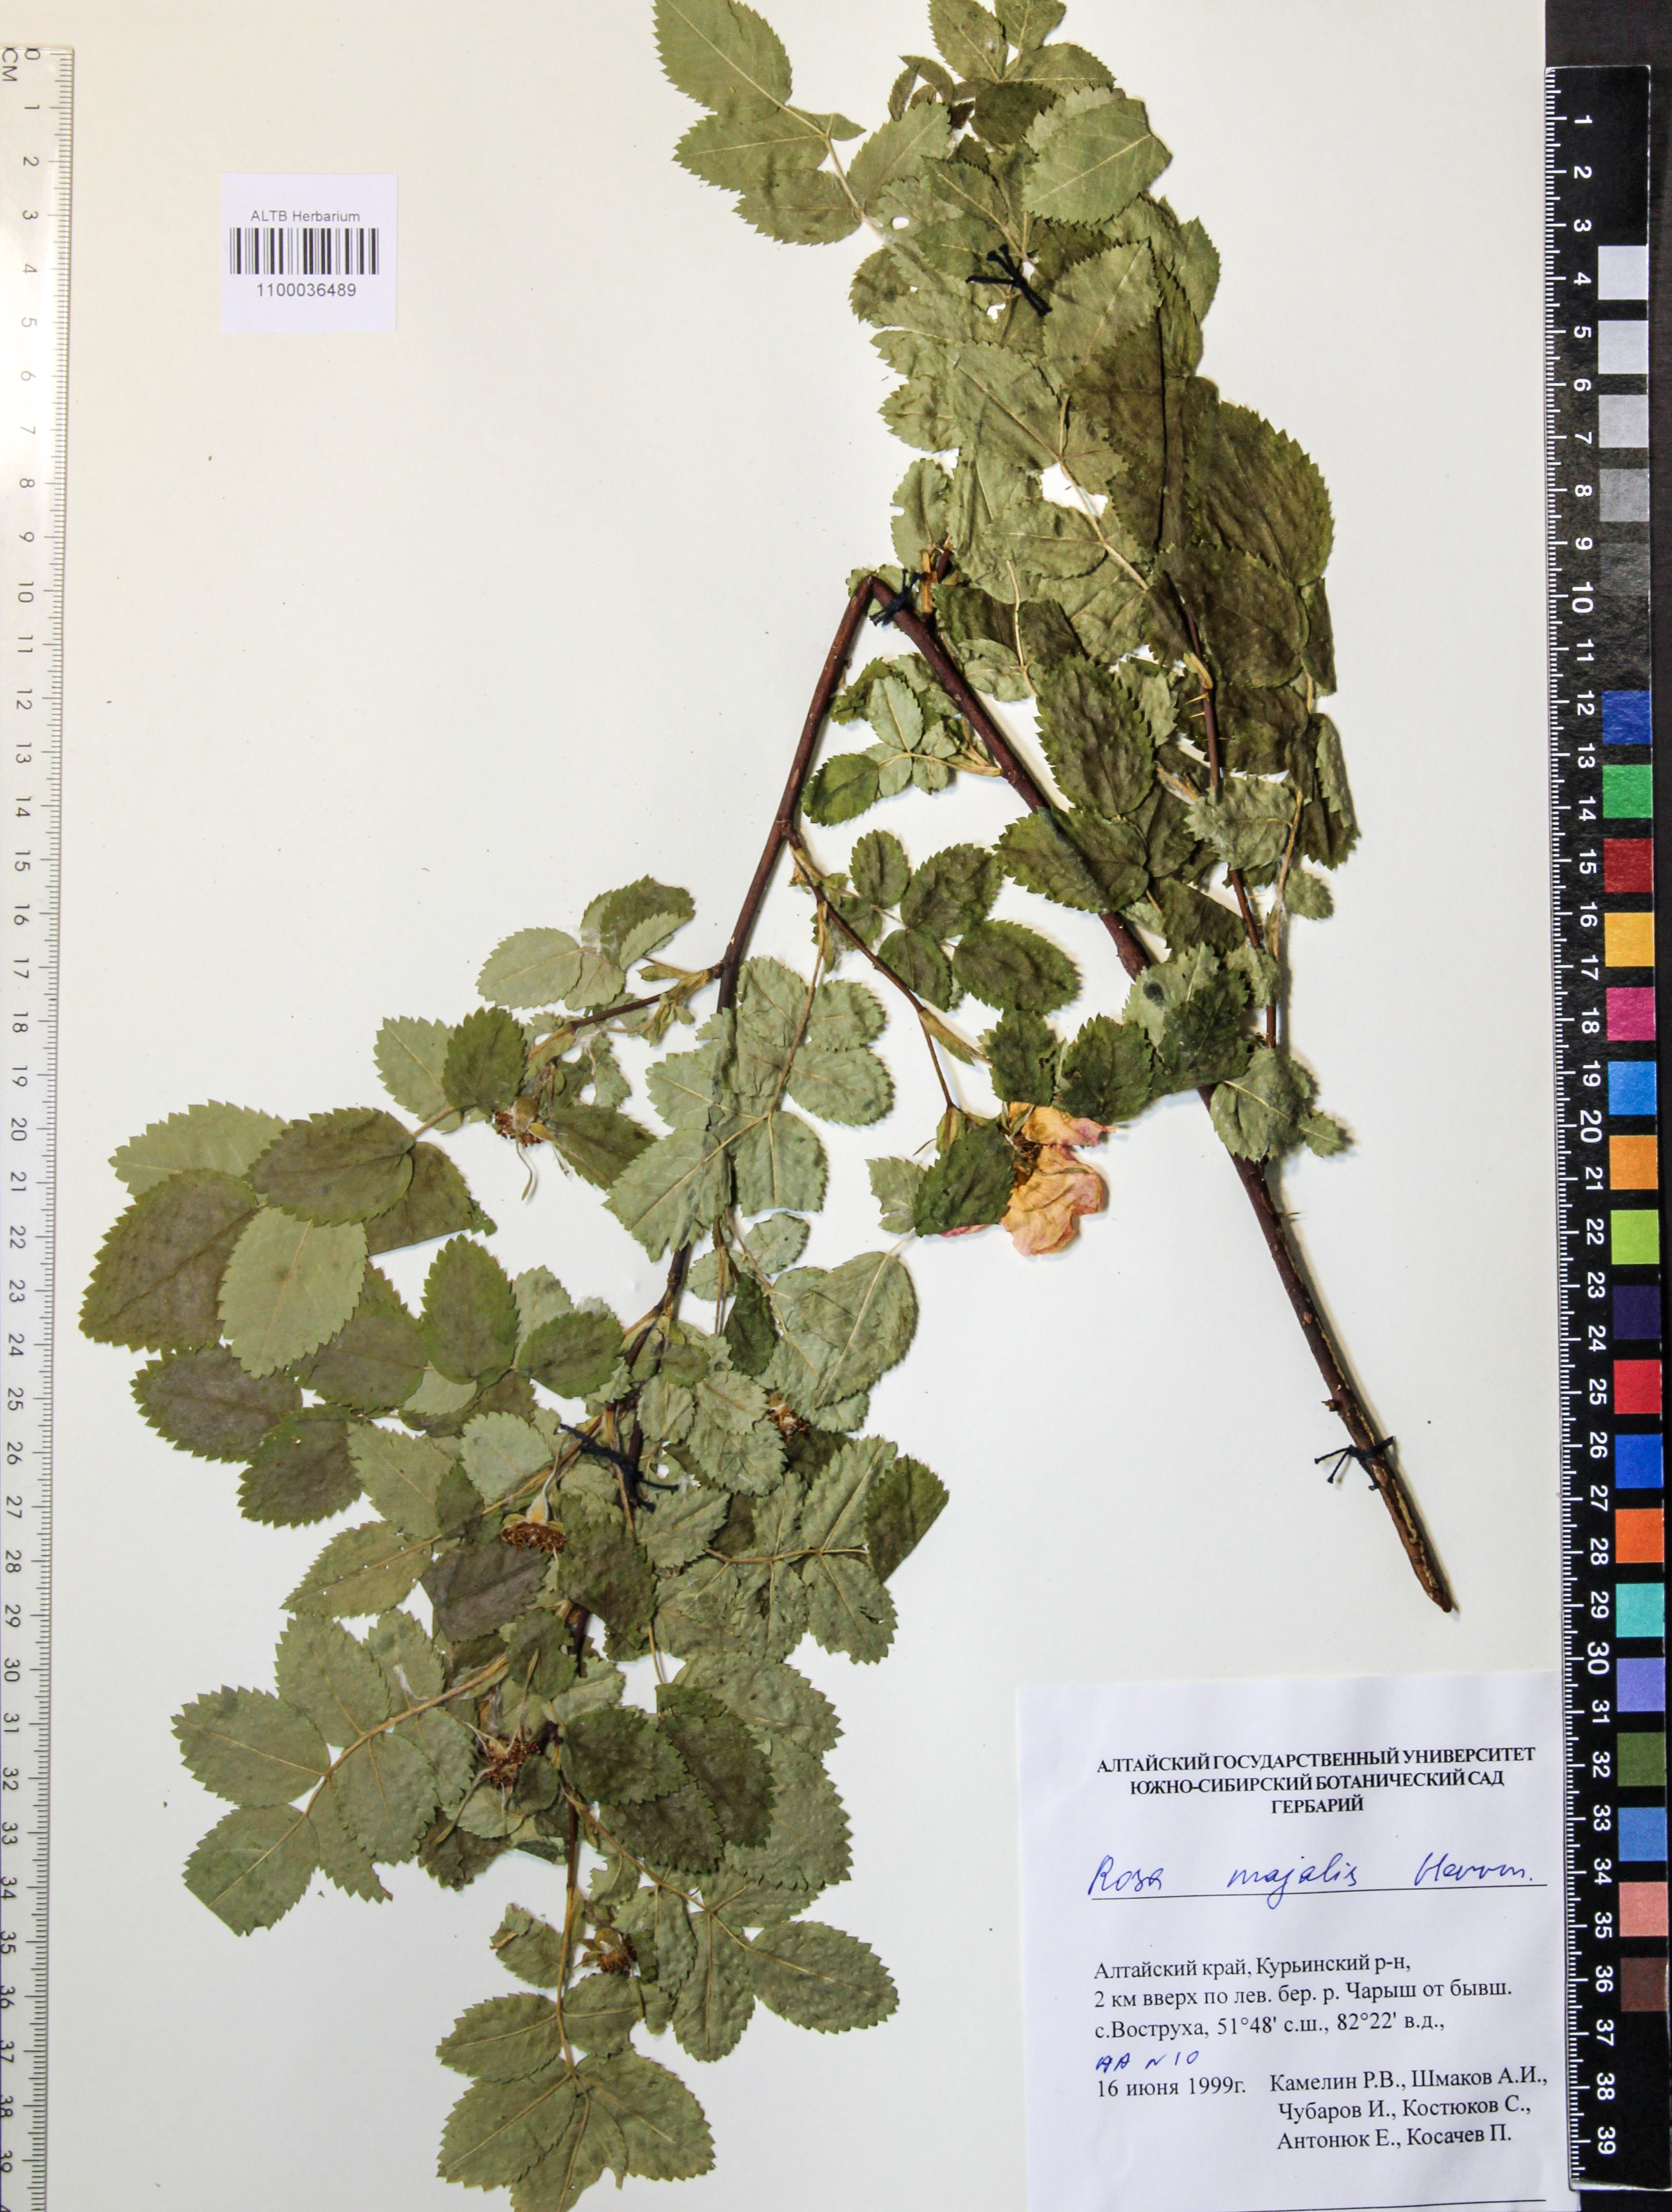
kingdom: Plantae
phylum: Tracheophyta
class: Magnoliopsida
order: Rosales
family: Rosaceae
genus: Rosa
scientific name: Rosa majalis
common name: Cinnamon rose
